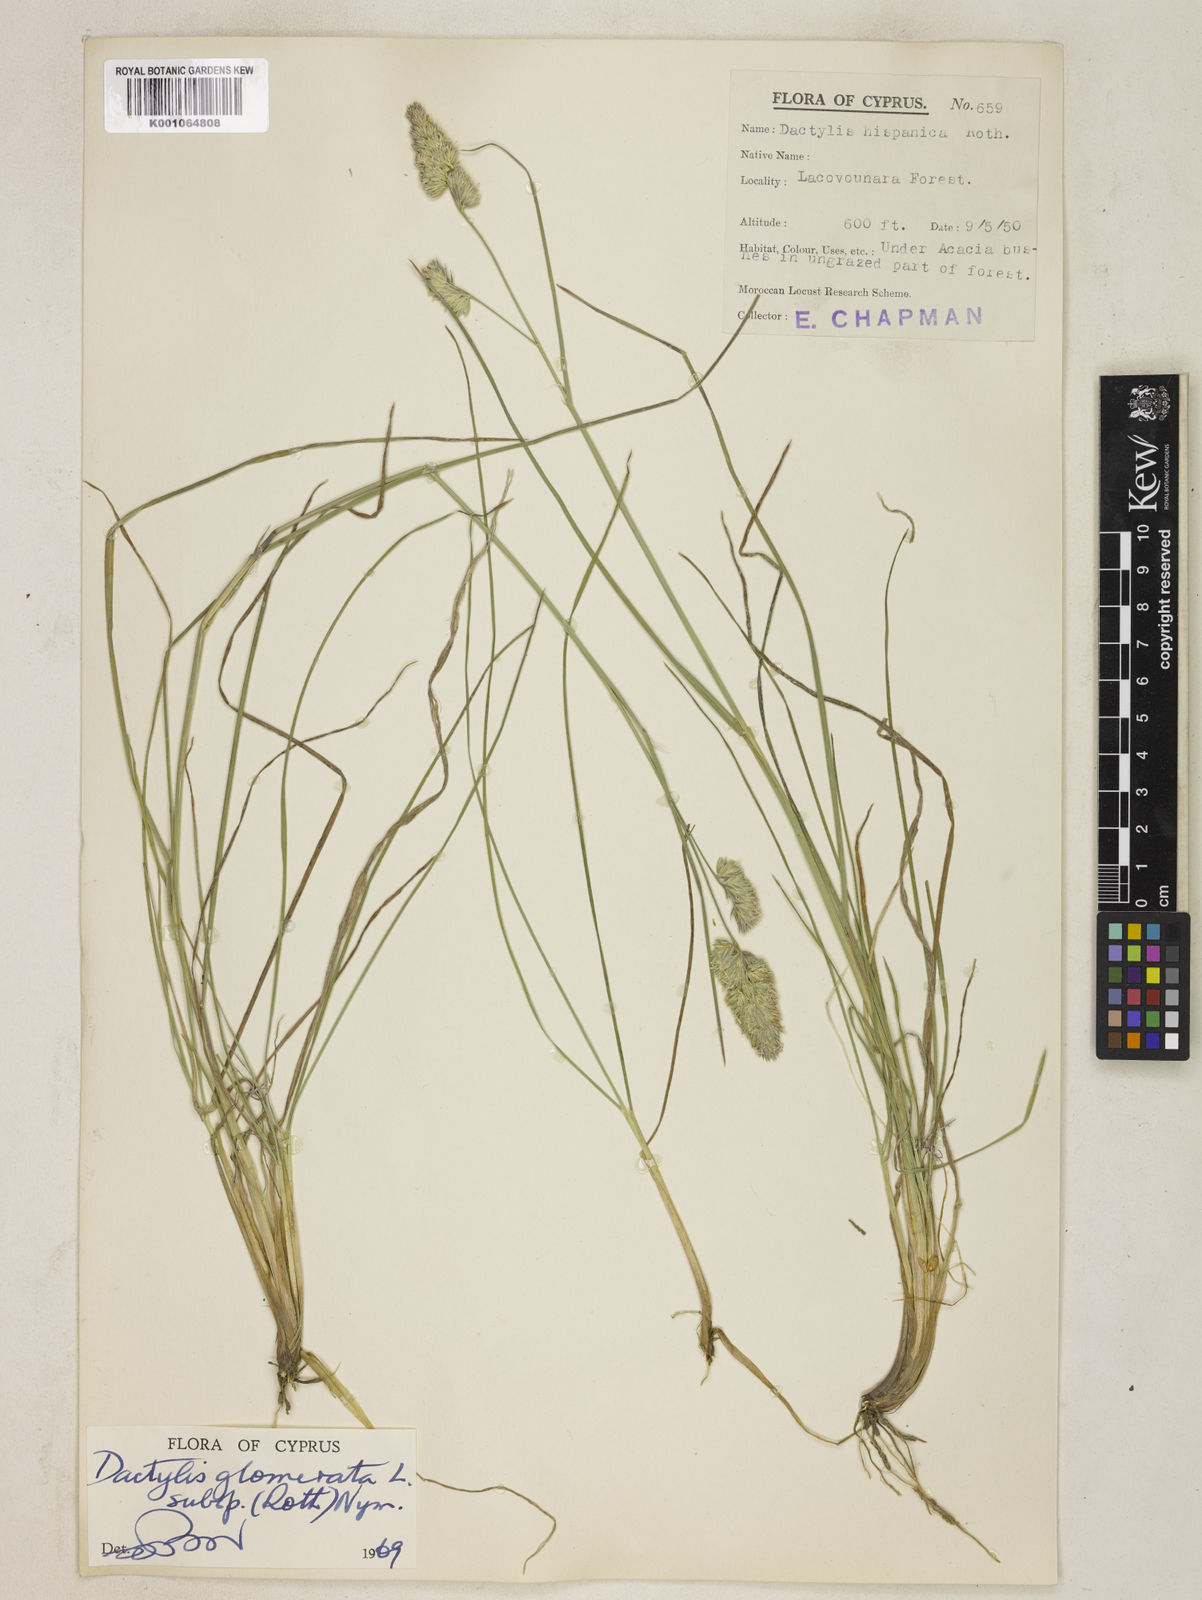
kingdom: Plantae
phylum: Tracheophyta
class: Liliopsida
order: Poales
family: Poaceae
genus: Dactylis
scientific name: Dactylis glomerata
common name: Orchardgrass
